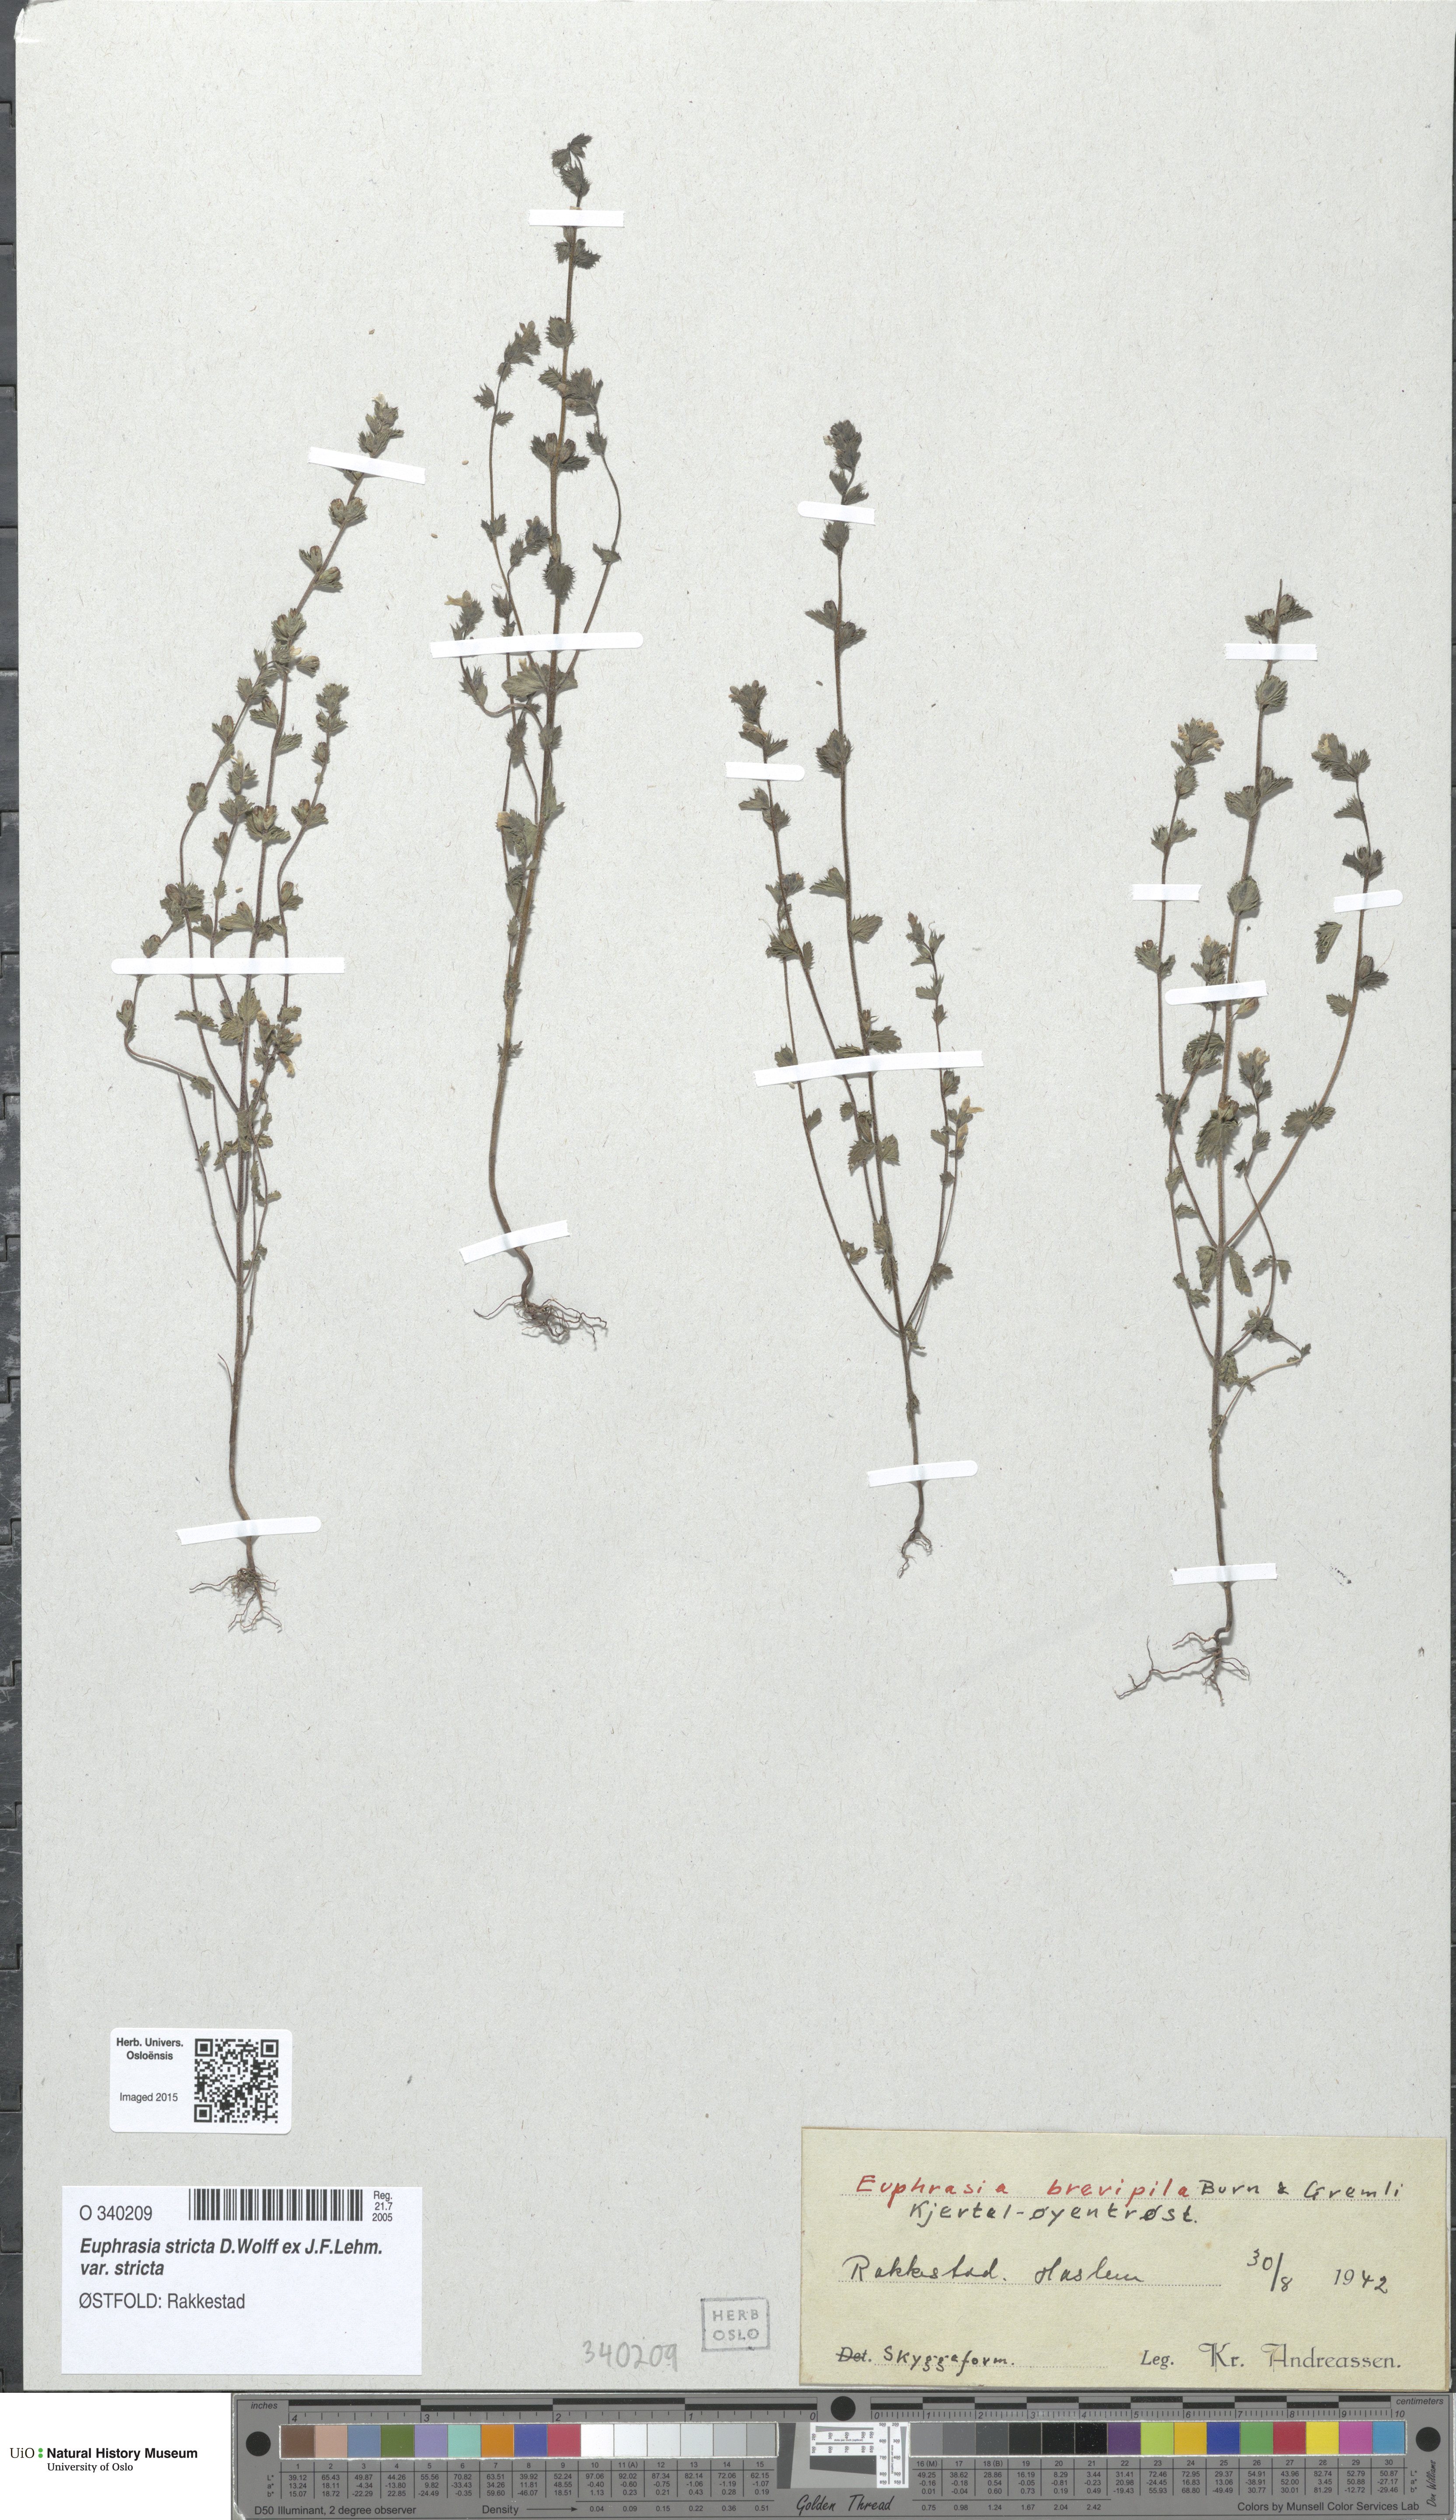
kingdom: Plantae
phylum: Tracheophyta
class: Magnoliopsida
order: Lamiales
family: Orobanchaceae
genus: Euphrasia
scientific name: Euphrasia vernalis
